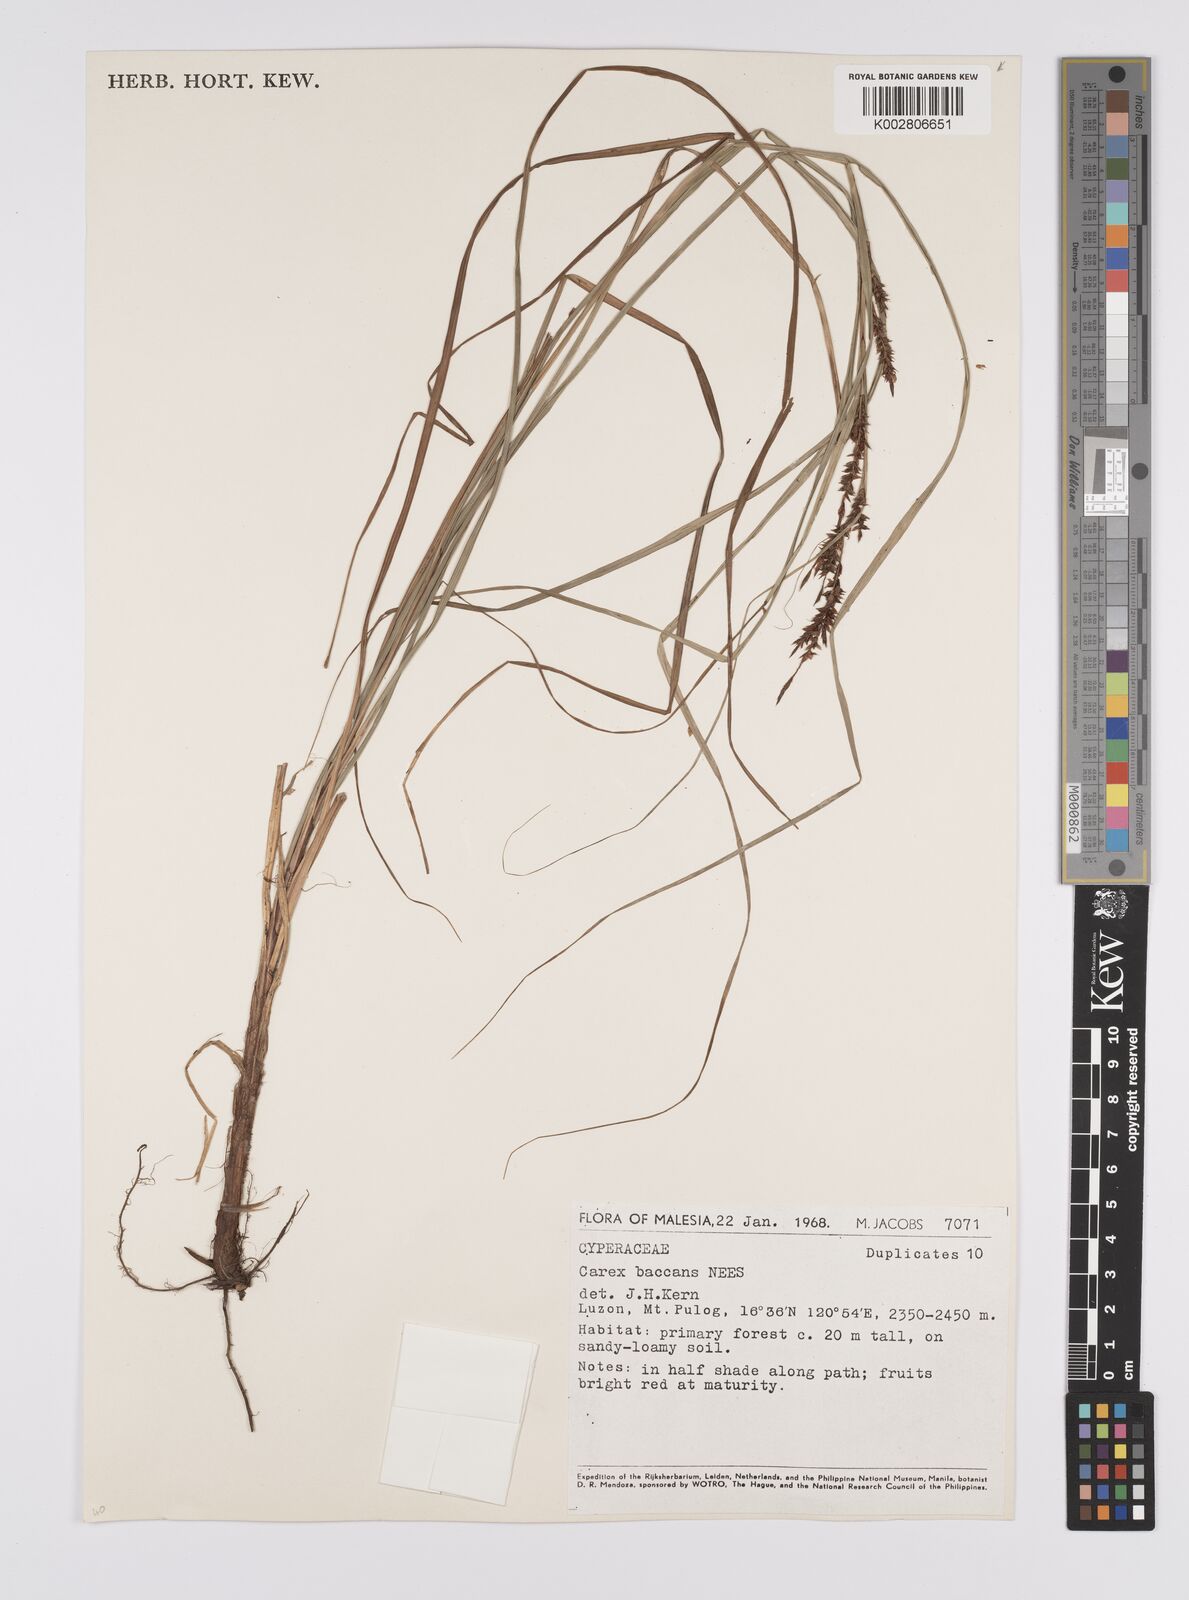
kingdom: Plantae
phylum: Tracheophyta
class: Liliopsida
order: Poales
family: Cyperaceae
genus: Carex
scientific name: Carex baccans
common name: Crimson seeded sedge
